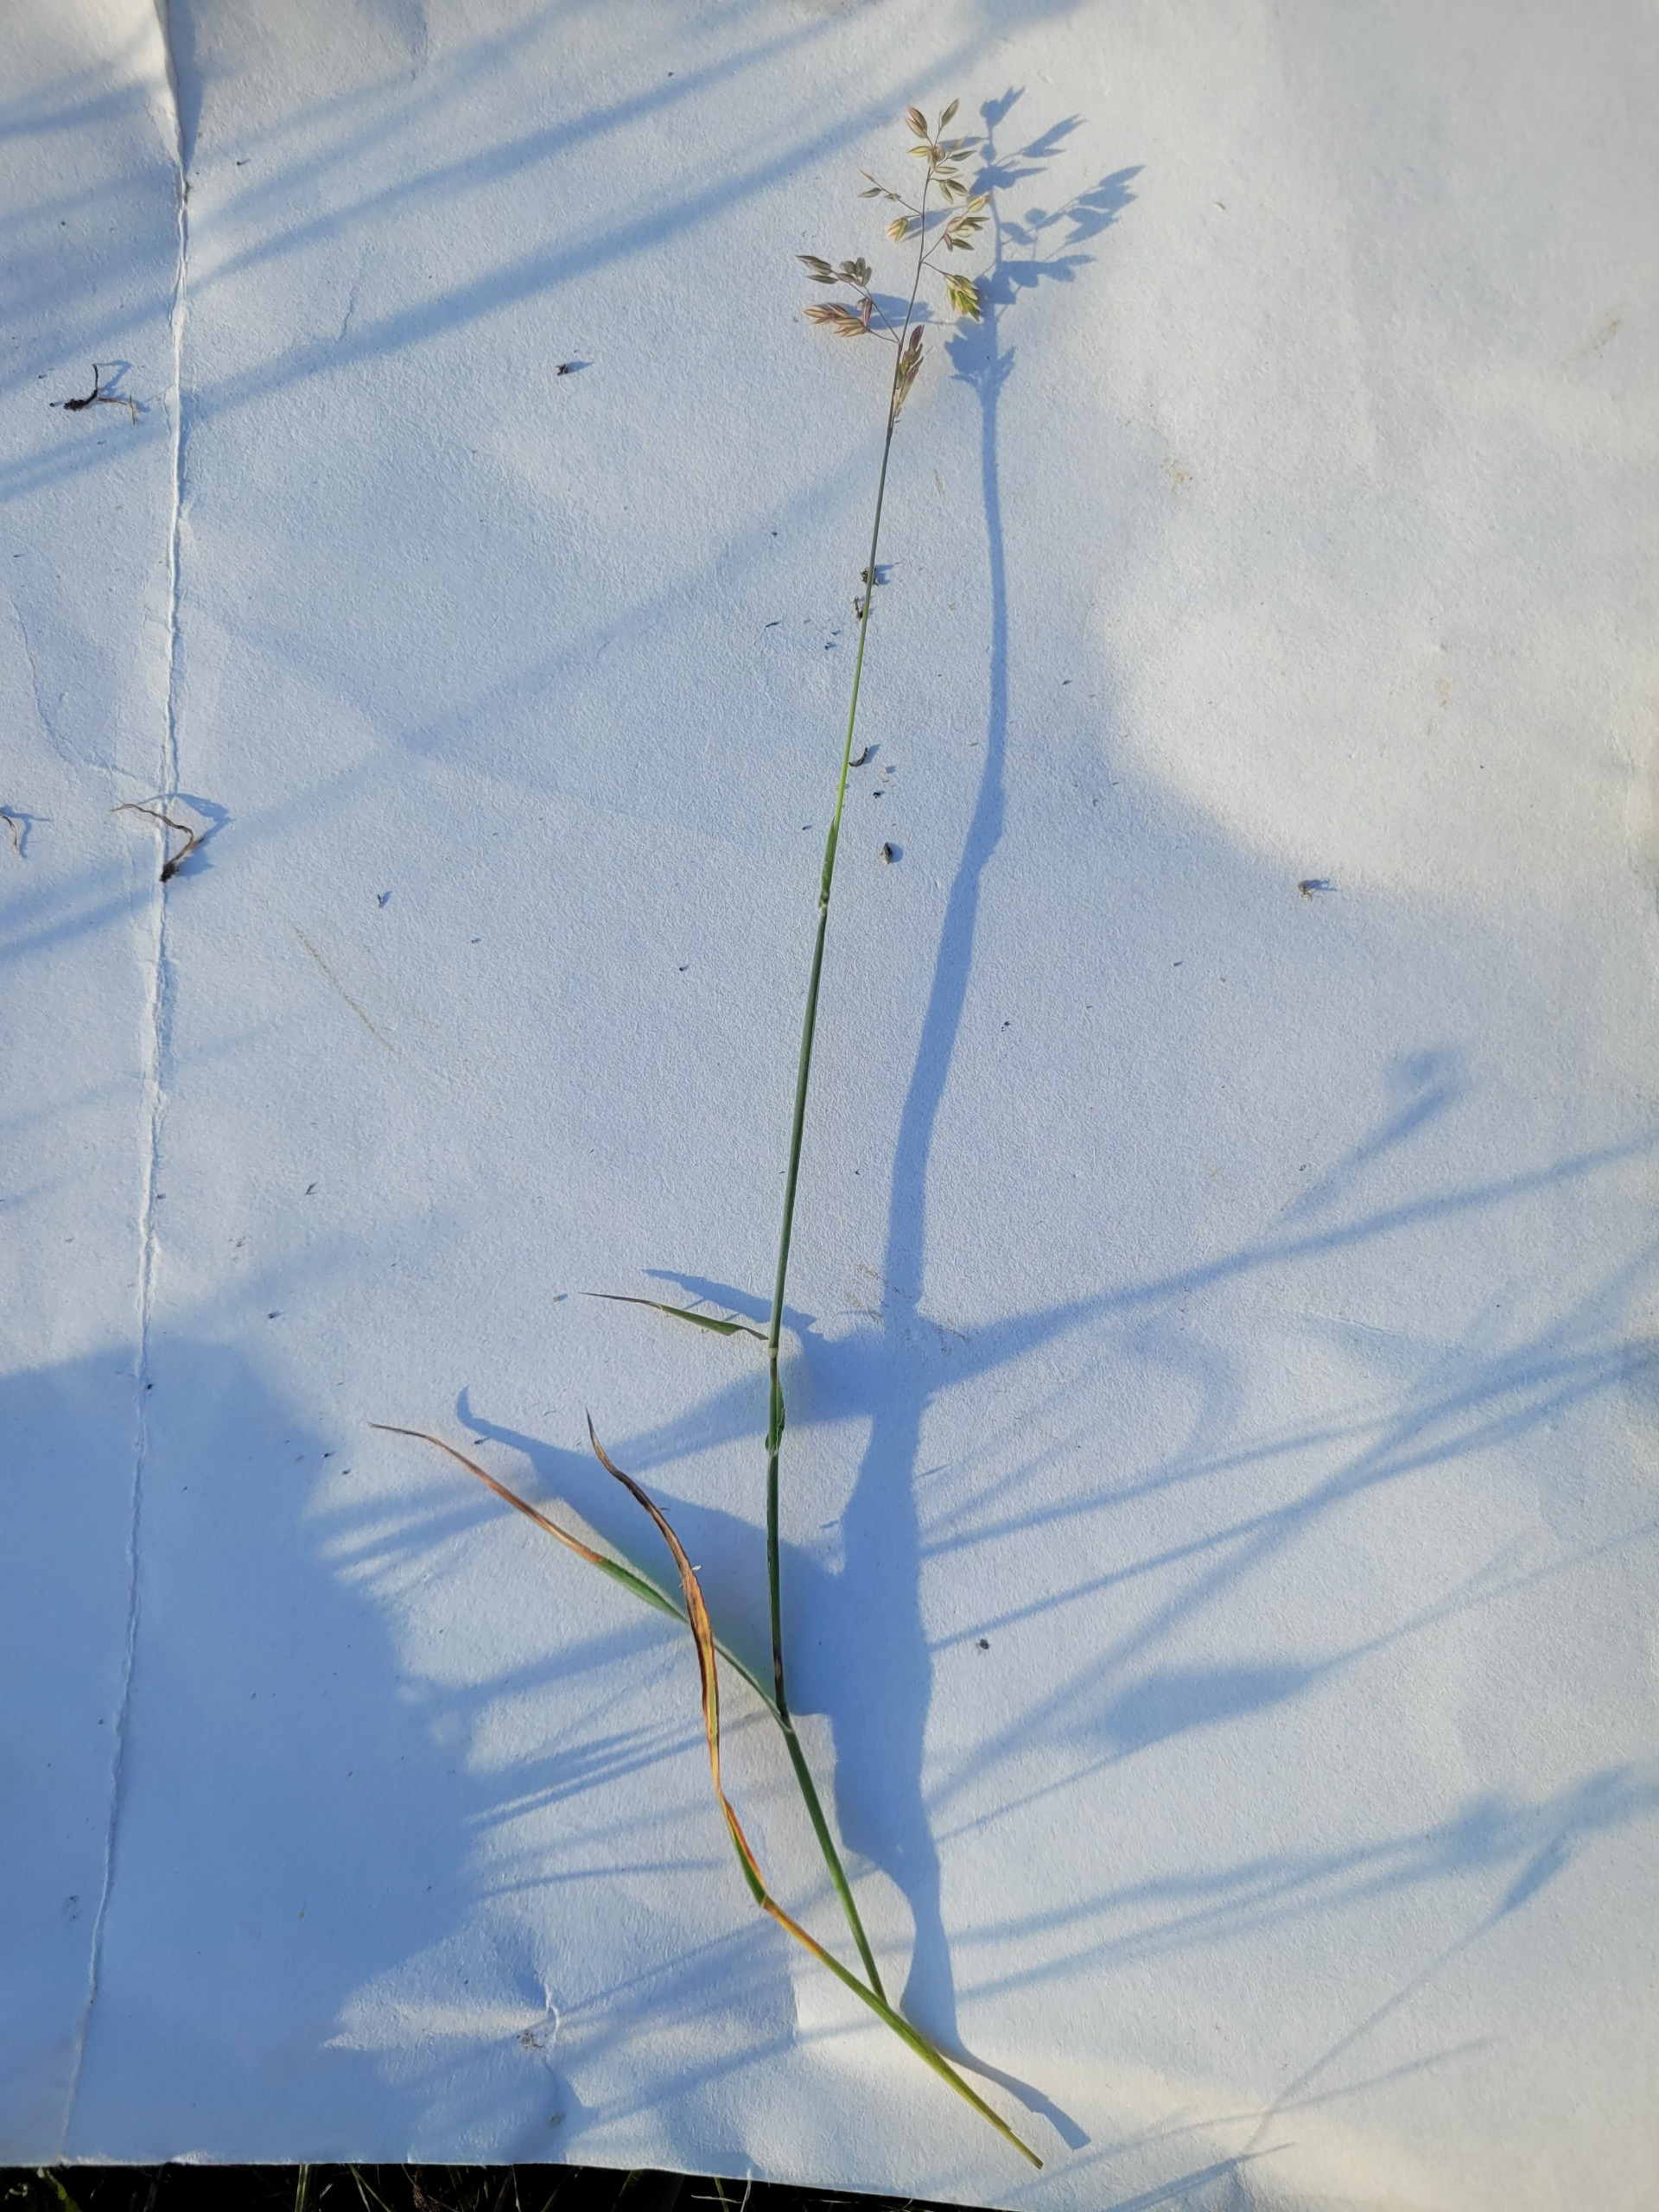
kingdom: Plantae
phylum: Tracheophyta
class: Liliopsida
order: Poales
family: Poaceae
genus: Holcus
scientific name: Holcus lanatus
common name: Fløjlsgræs
